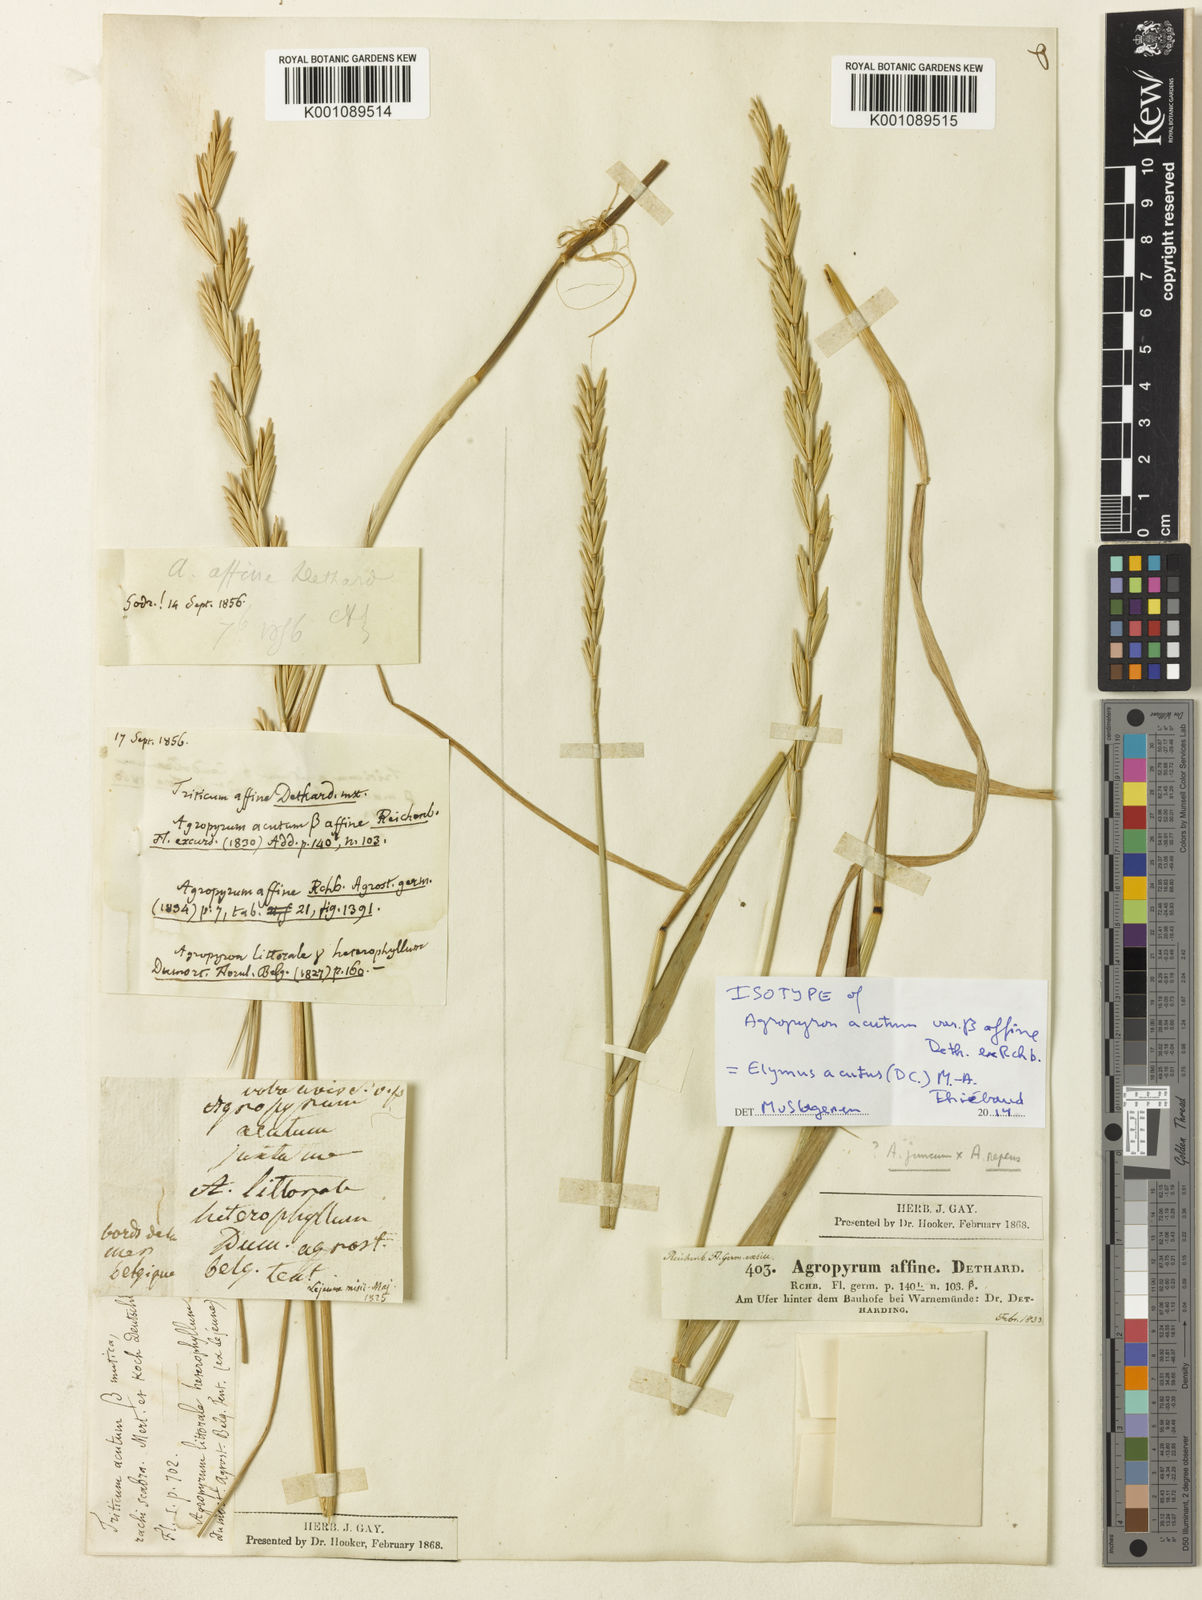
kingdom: Plantae
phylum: Tracheophyta
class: Liliopsida
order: Poales
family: Poaceae
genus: Thinopyrum
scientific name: Thinopyrum acutum
